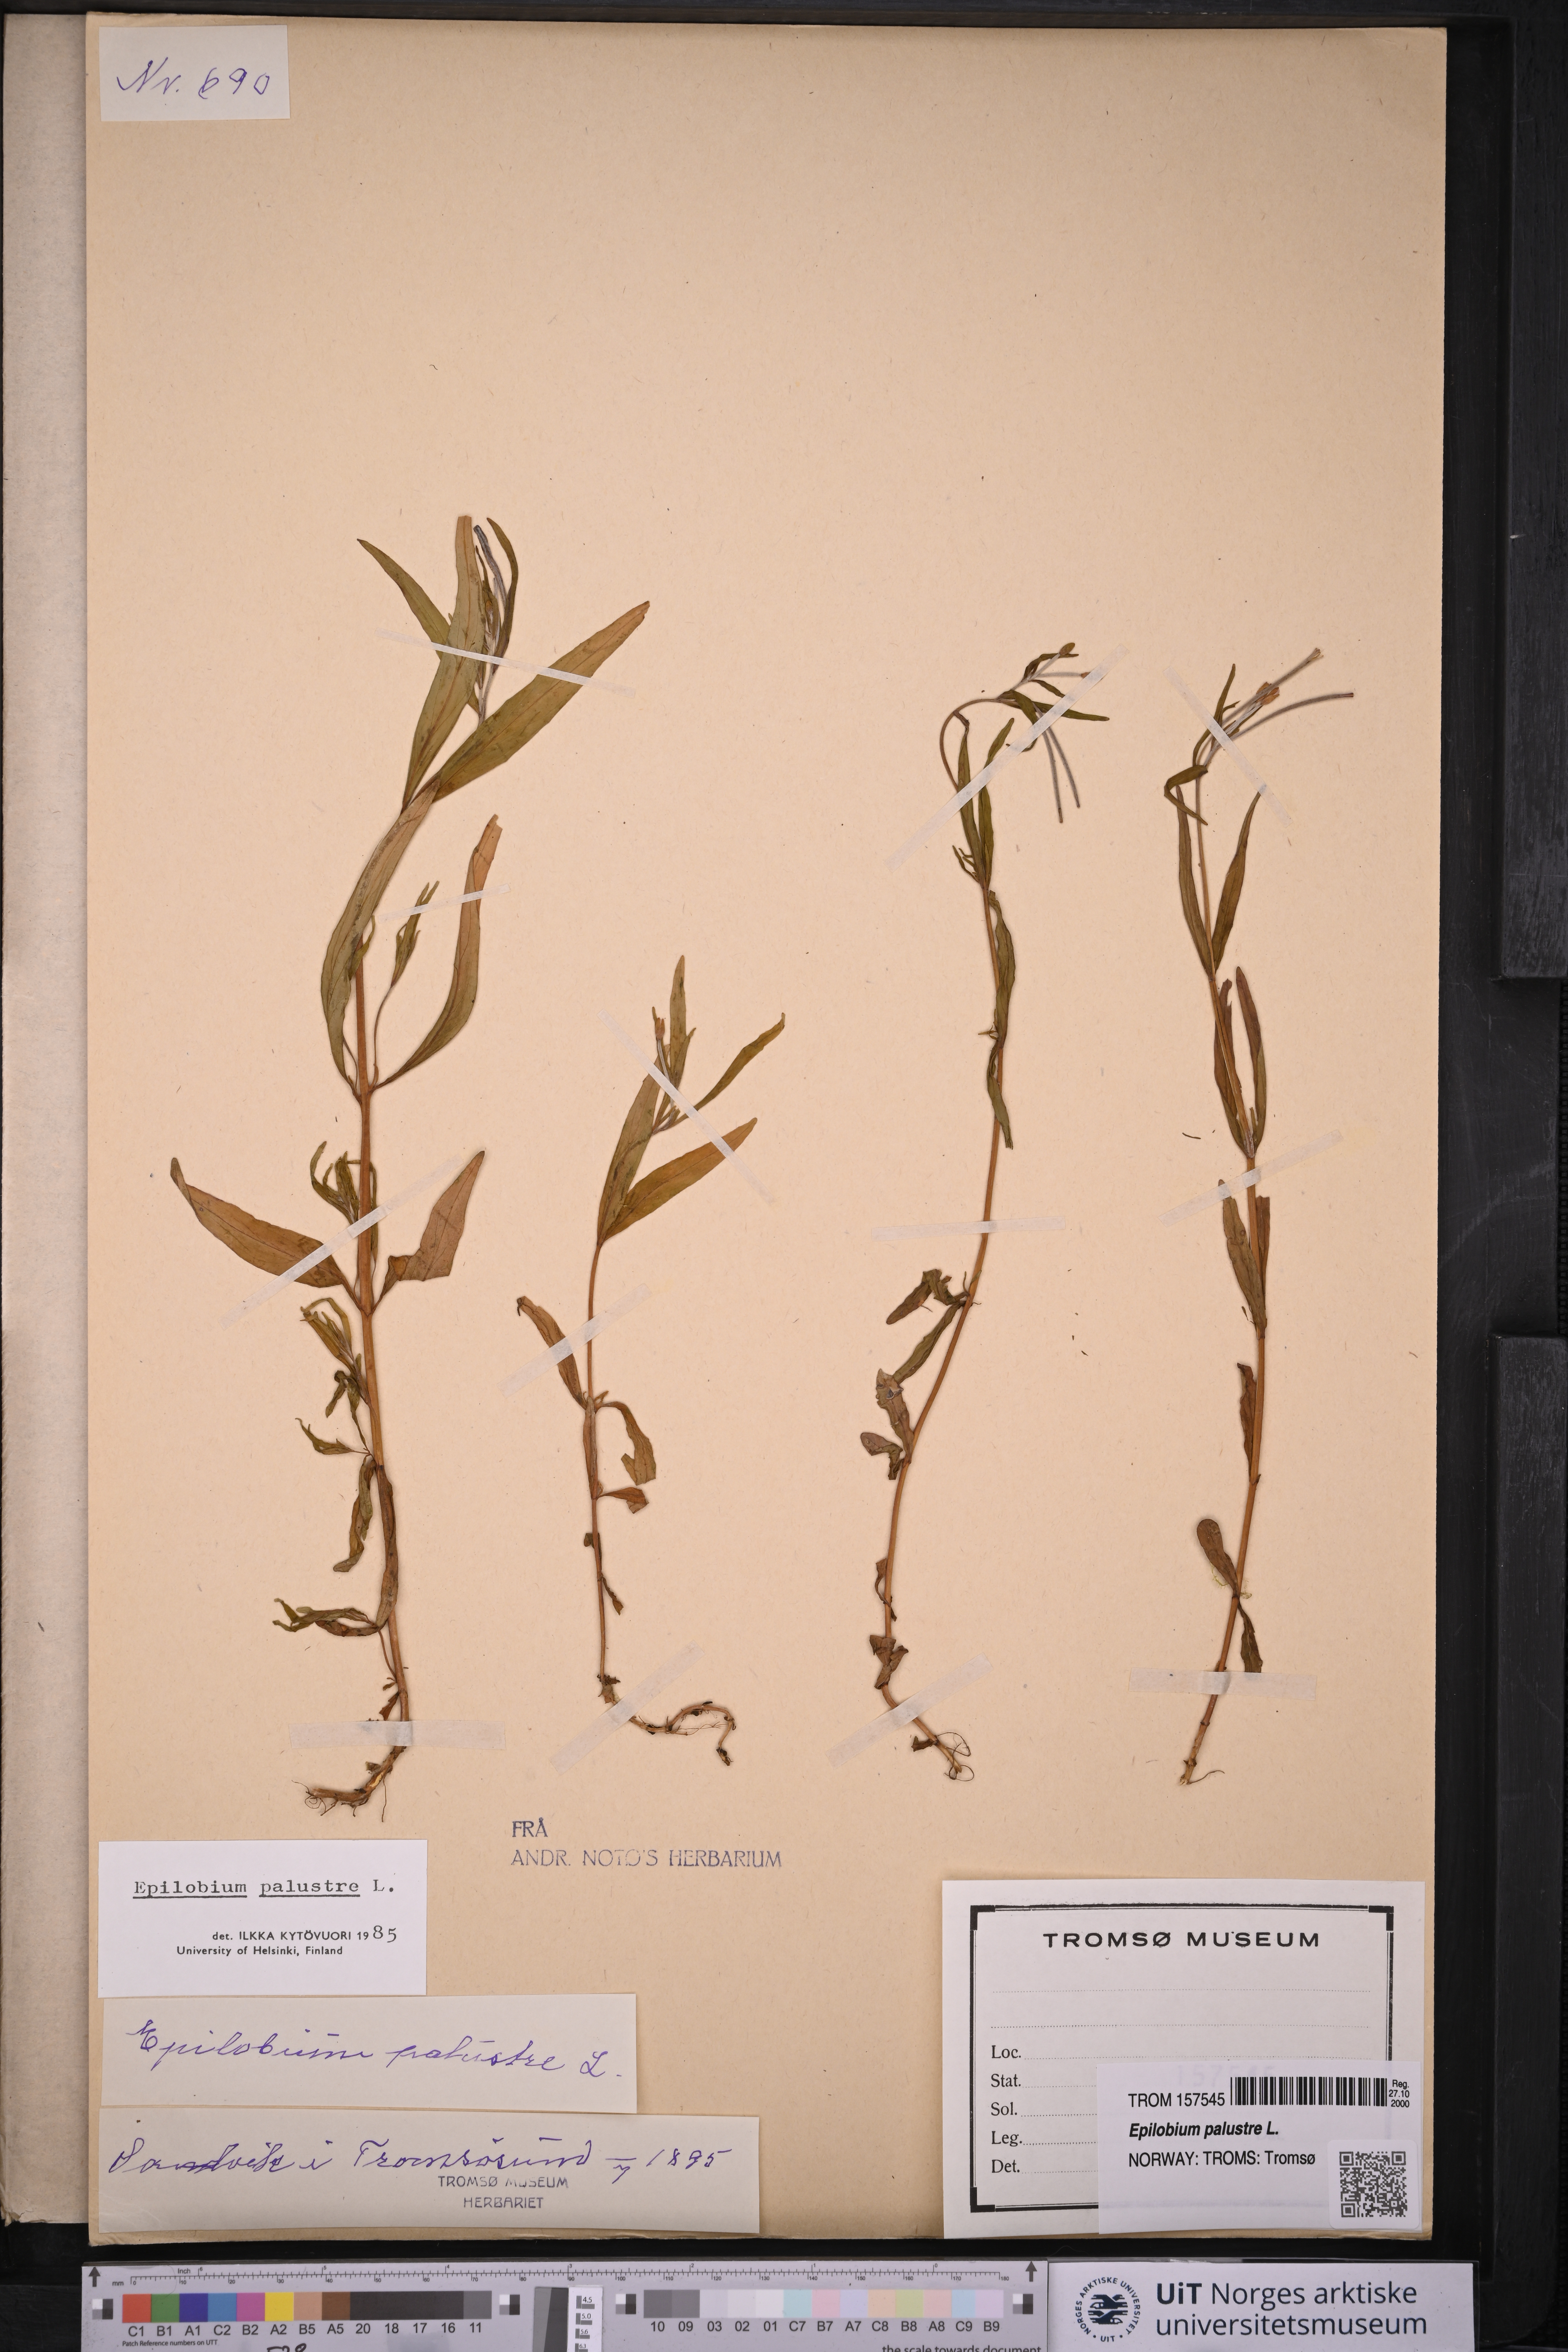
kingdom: Plantae
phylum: Tracheophyta
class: Magnoliopsida
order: Myrtales
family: Onagraceae
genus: Epilobium
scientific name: Epilobium palustre
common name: Marsh willowherb
